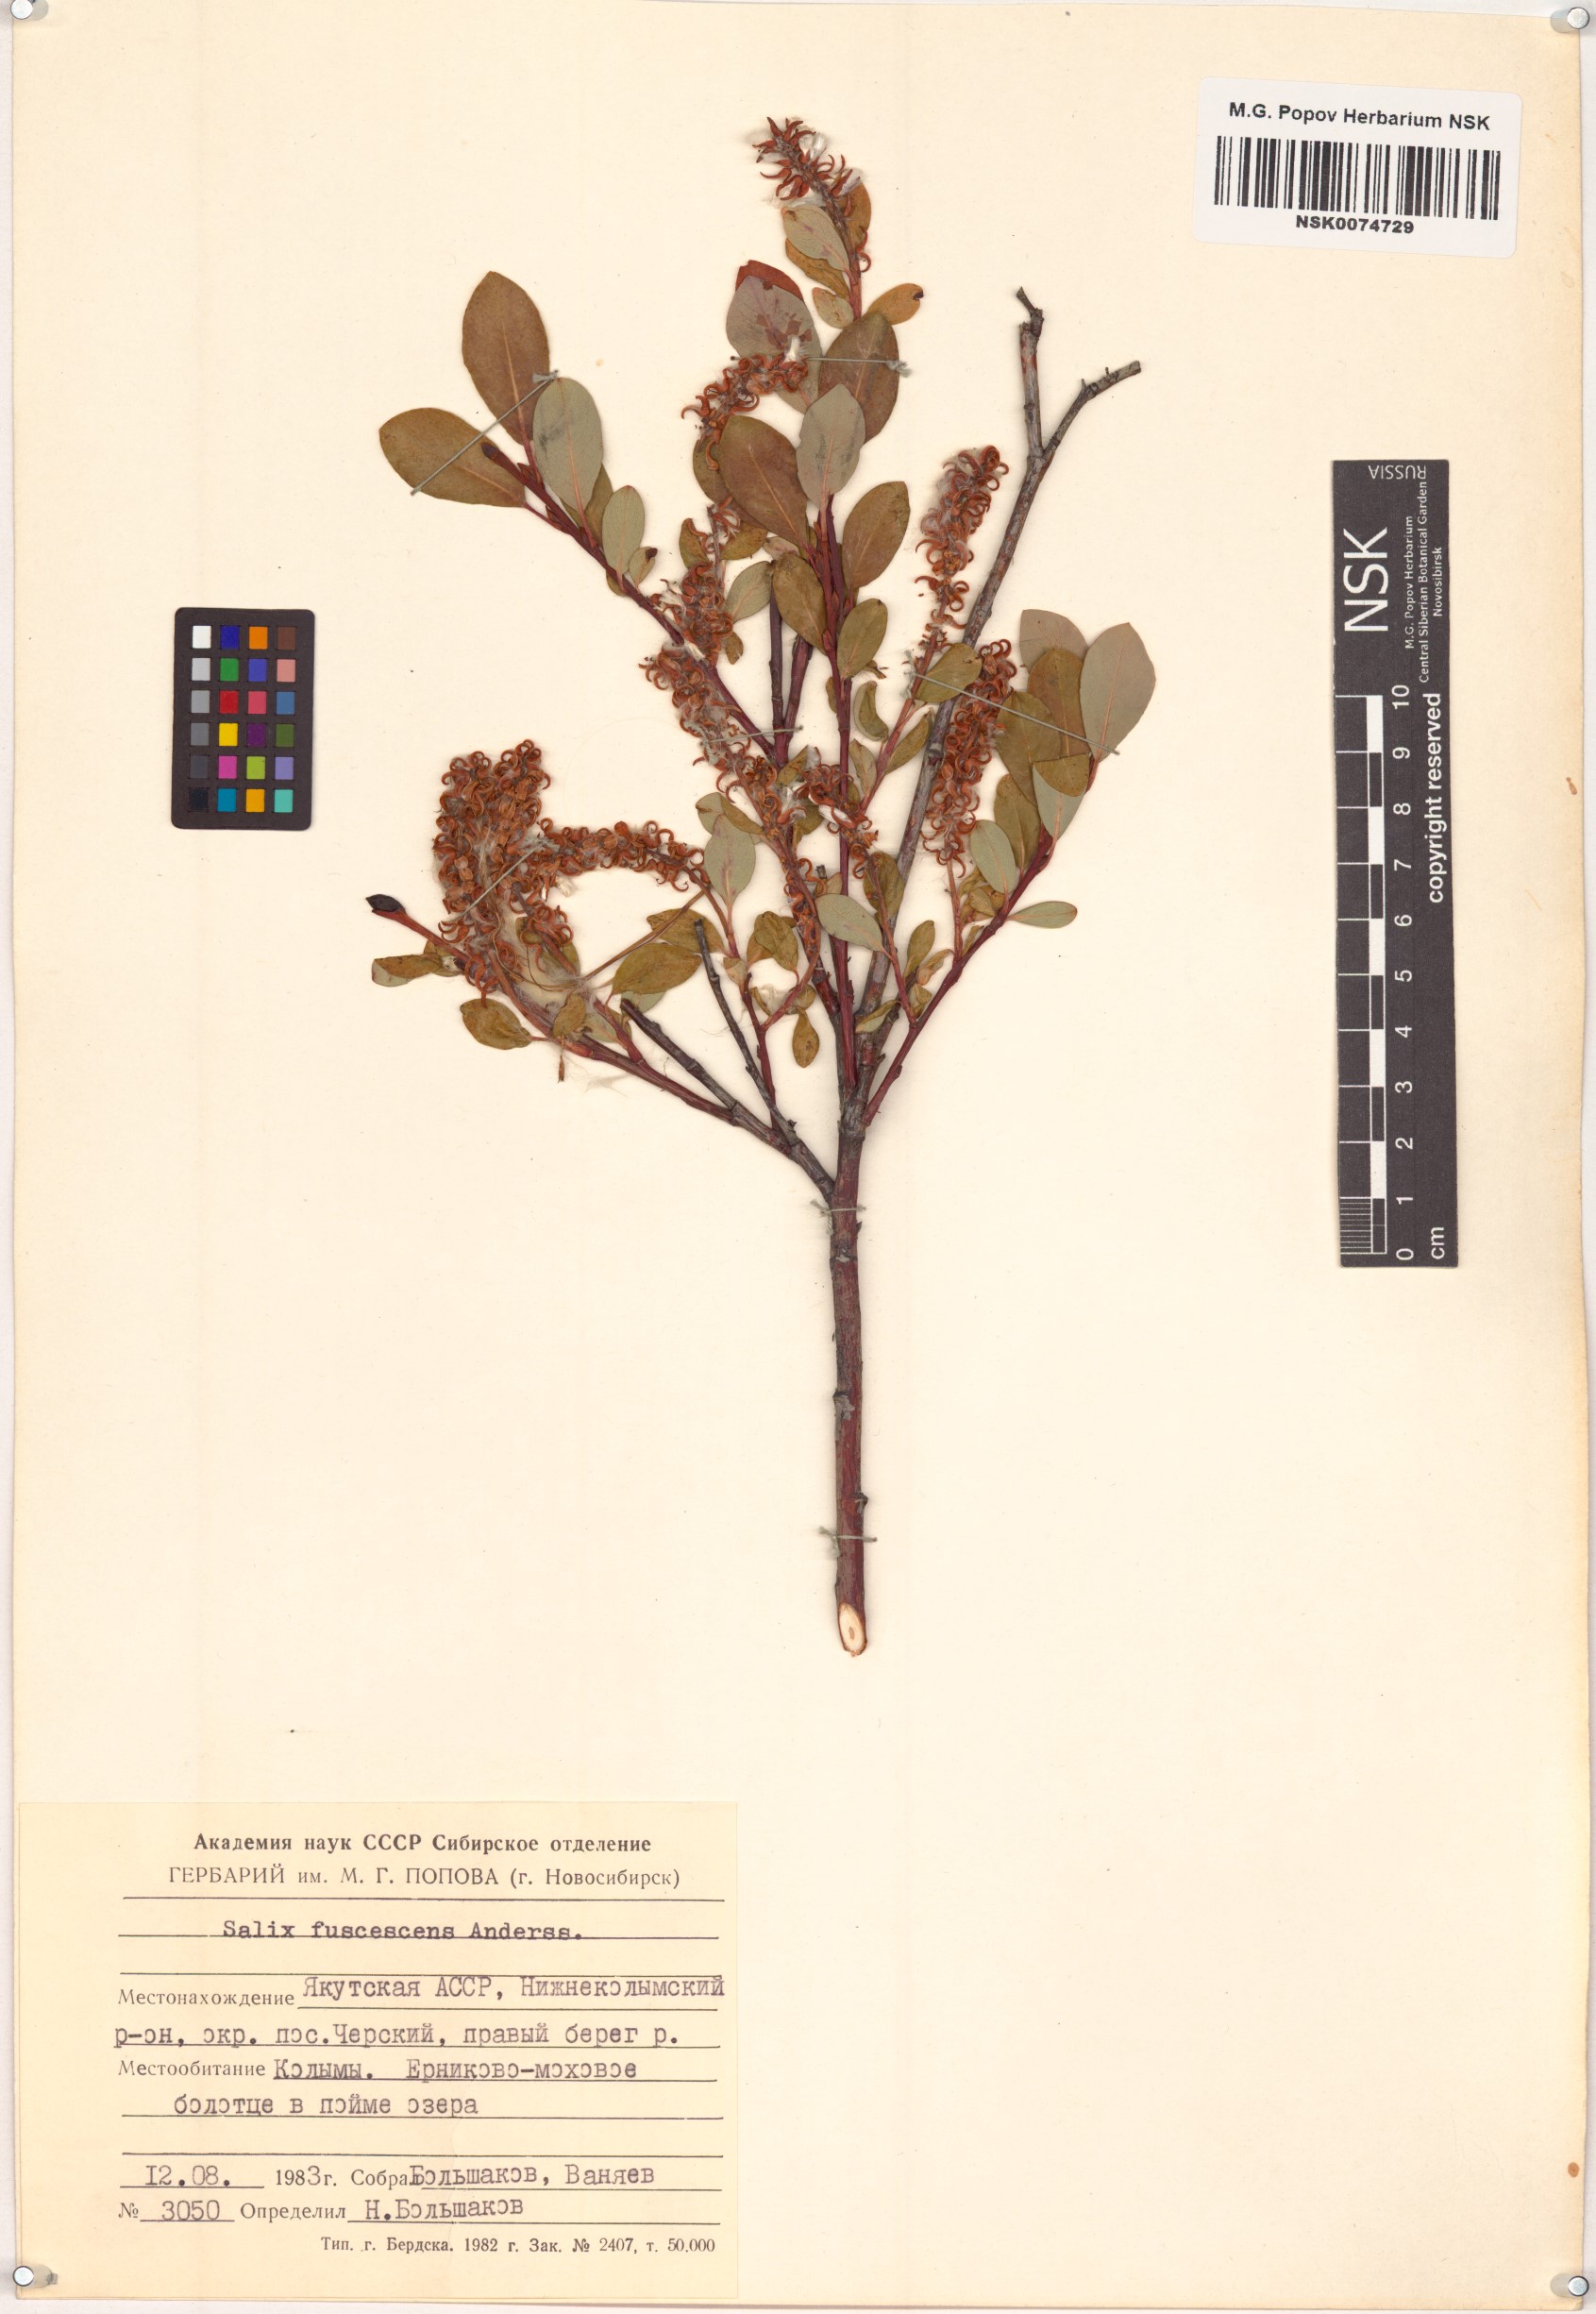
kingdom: Plantae
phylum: Tracheophyta
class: Magnoliopsida
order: Malpighiales
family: Salicaceae
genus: Salix
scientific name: Salix fuscescens
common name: Brownish willow
